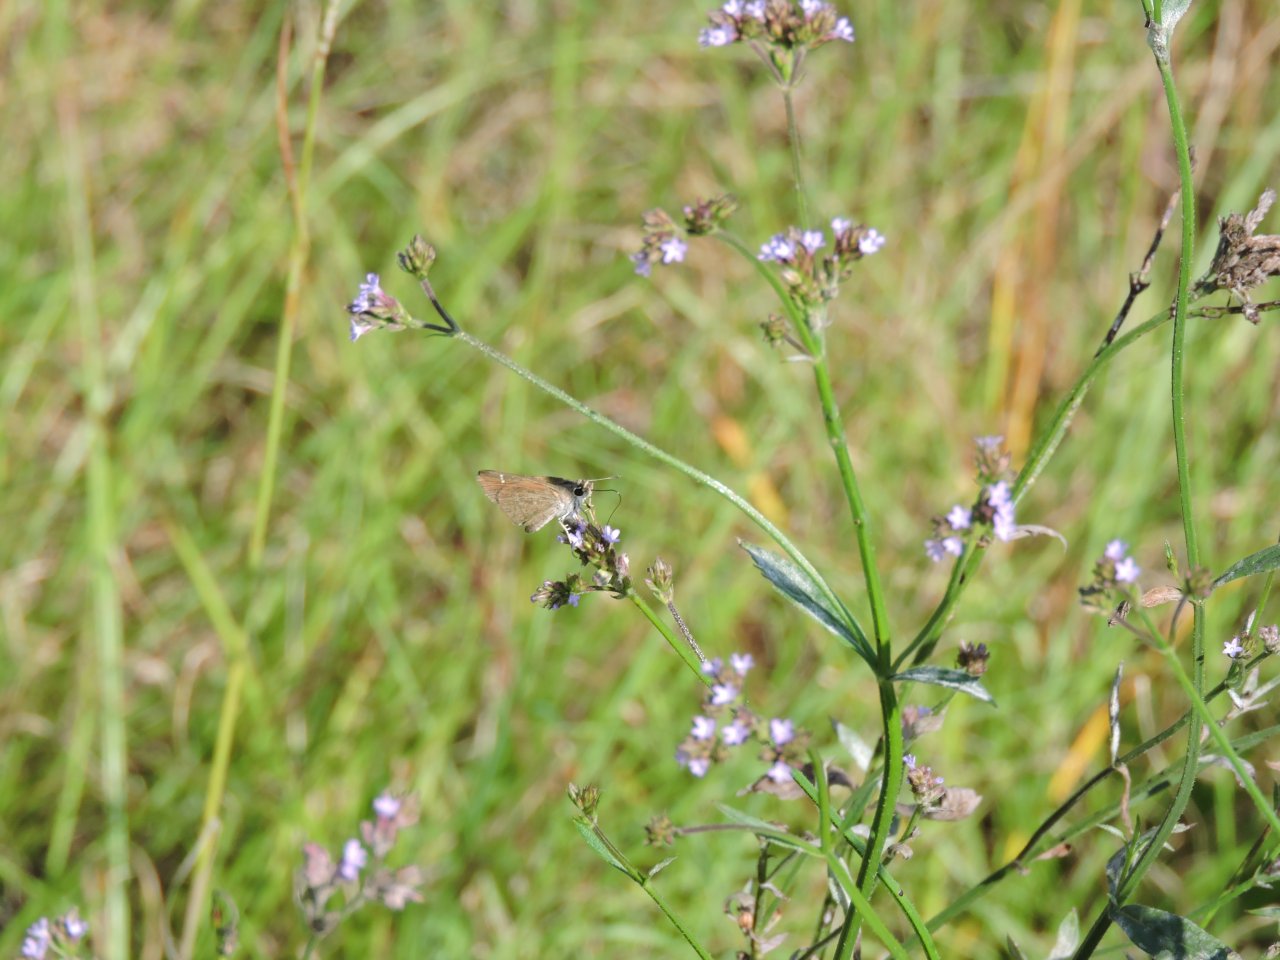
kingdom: Animalia
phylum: Arthropoda
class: Insecta
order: Lepidoptera
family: Hesperiidae
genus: Lerodea
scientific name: Lerodea eufala
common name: Eufala Skipper
